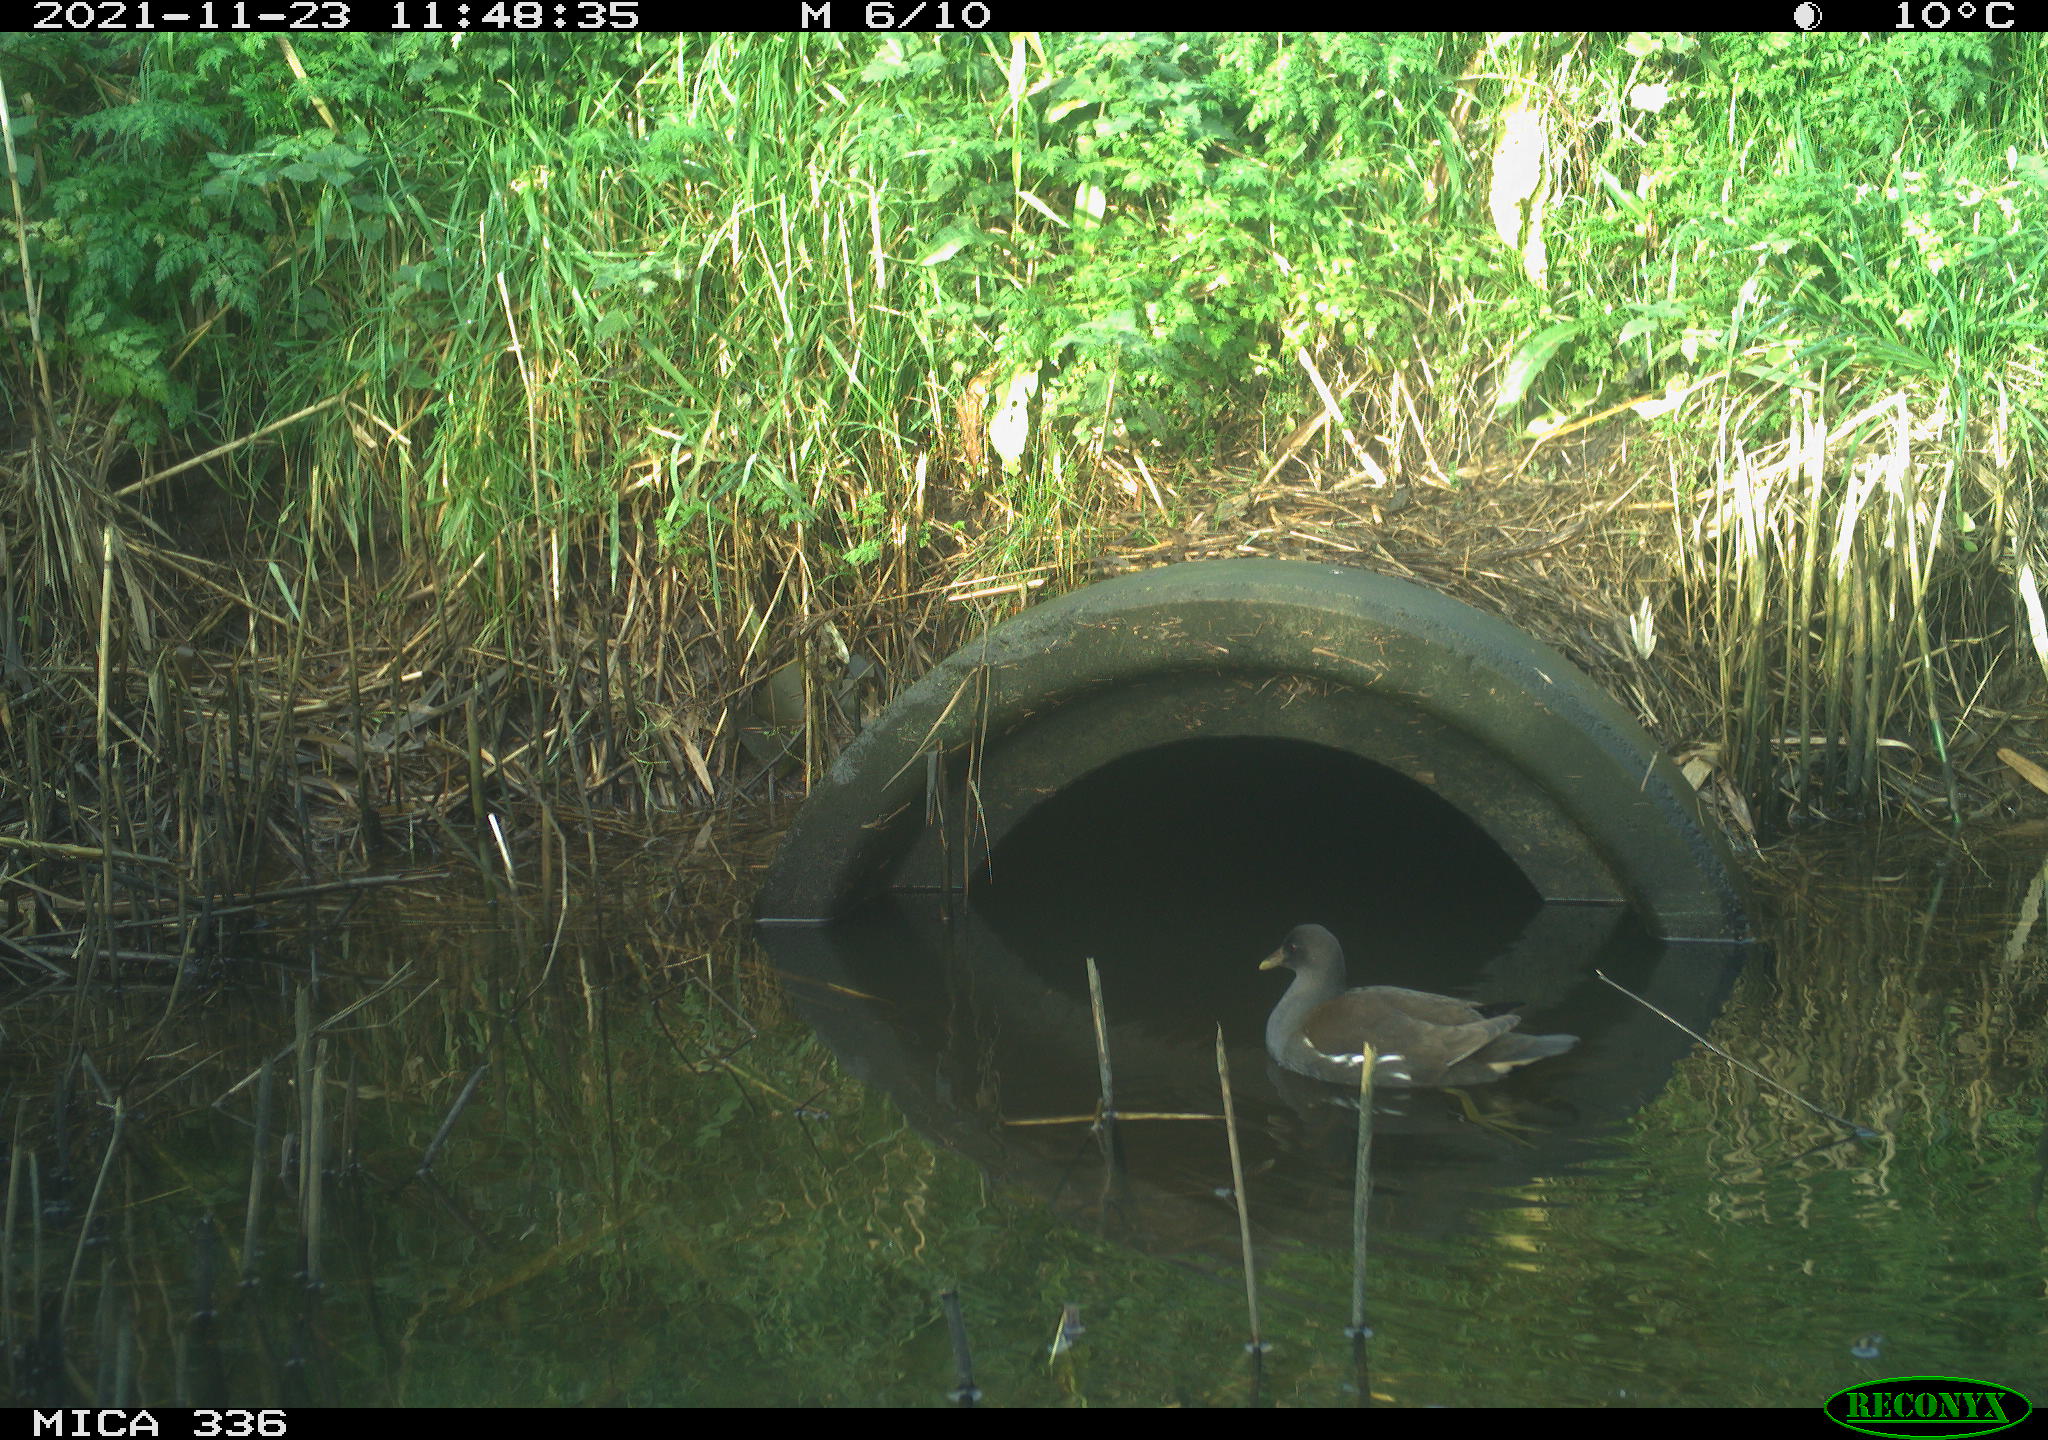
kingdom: Animalia
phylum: Chordata
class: Aves
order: Gruiformes
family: Rallidae
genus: Gallinula
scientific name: Gallinula chloropus
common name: Common moorhen
